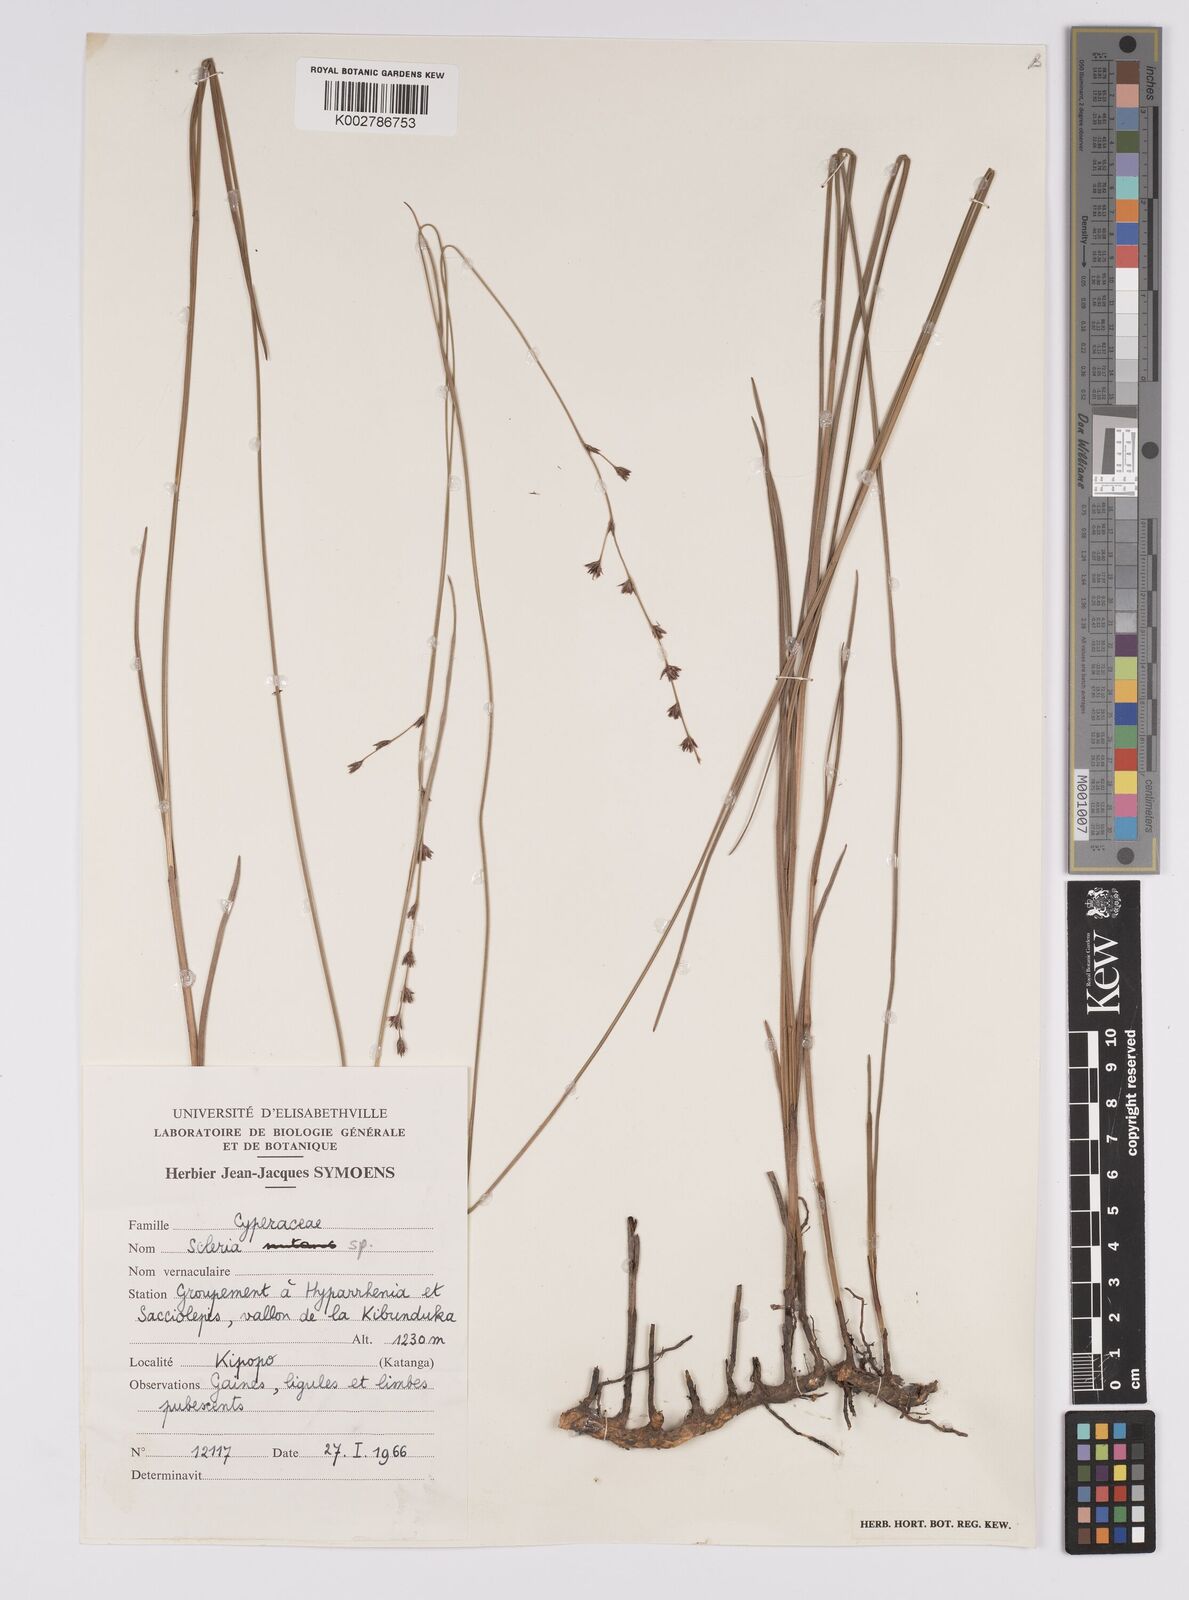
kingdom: Plantae
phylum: Tracheophyta
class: Liliopsida
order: Poales
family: Cyperaceae
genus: Scleria
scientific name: Scleria
